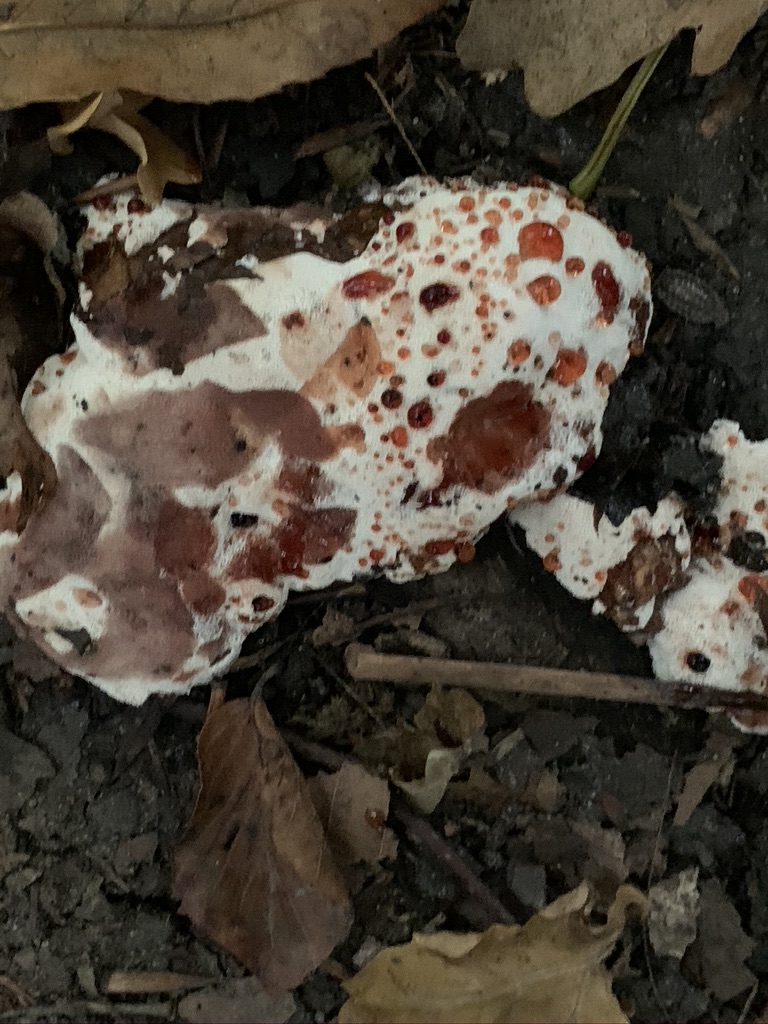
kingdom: Fungi
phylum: Basidiomycota
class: Agaricomycetes
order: Polyporales
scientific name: Polyporales
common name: poresvampordenen
